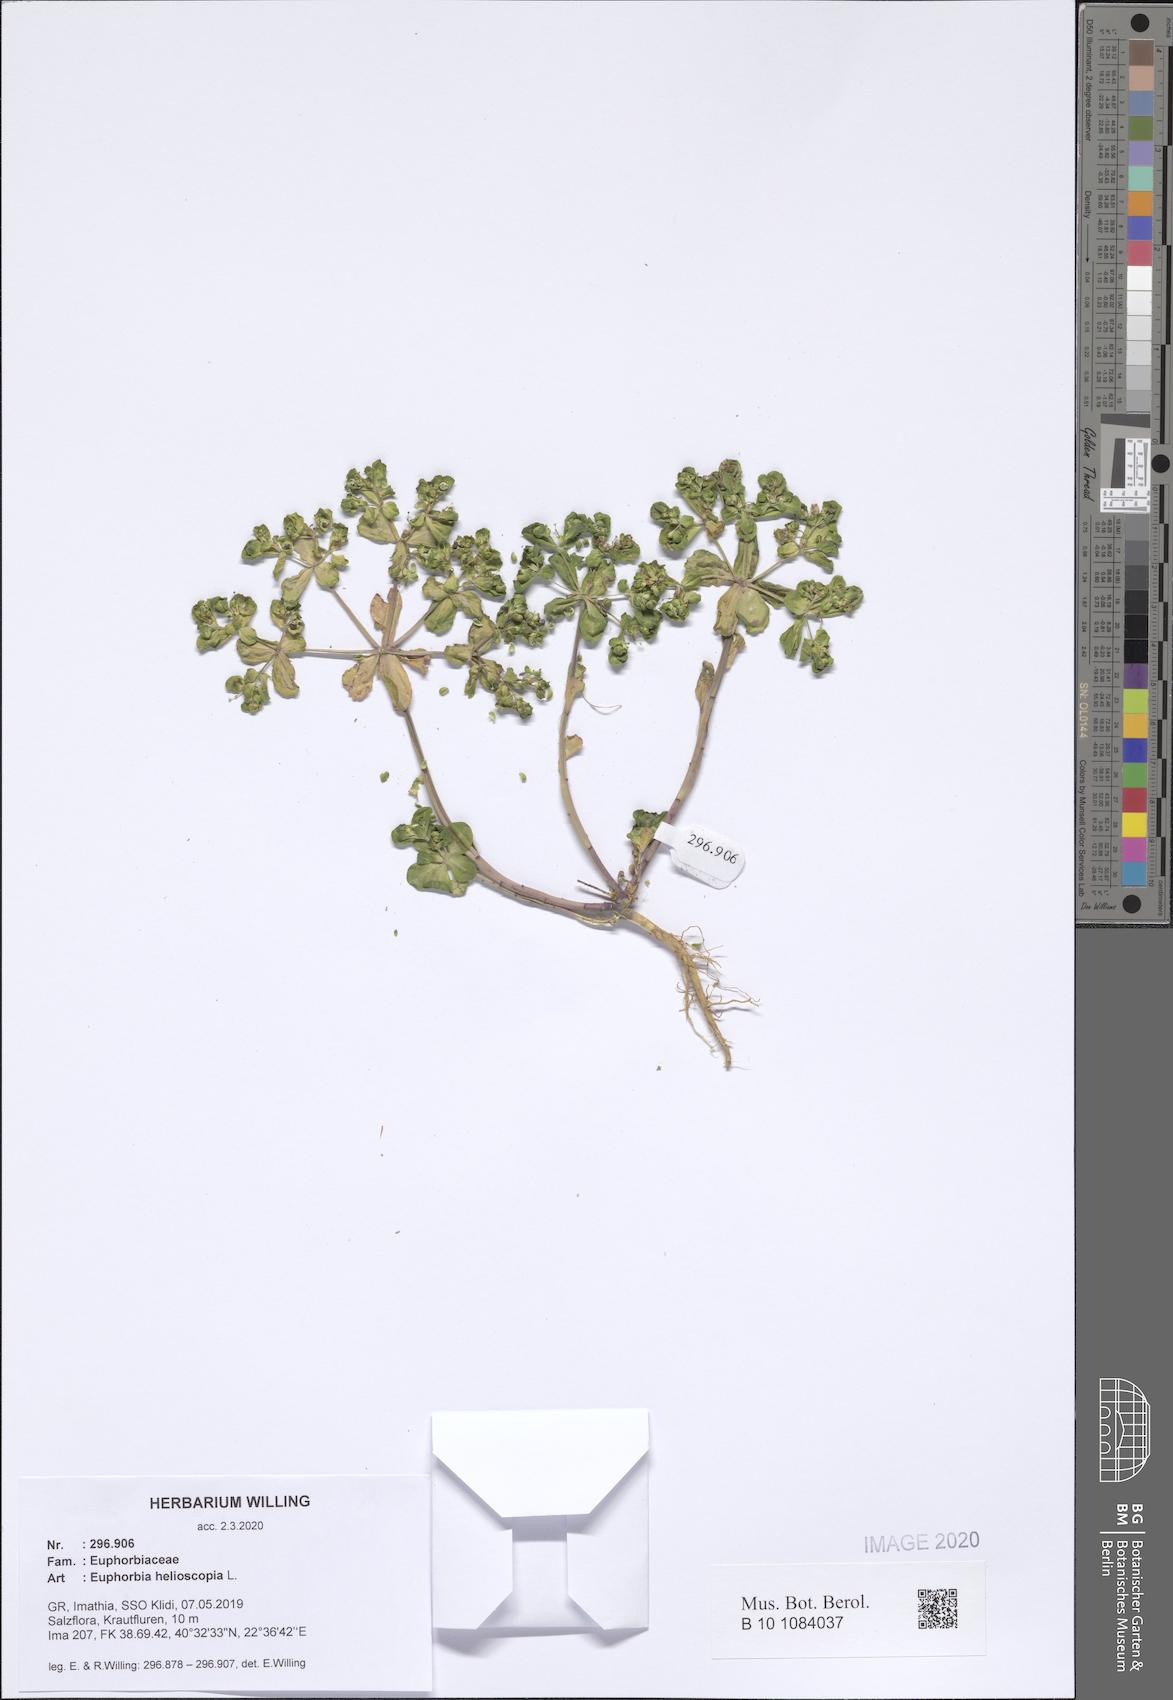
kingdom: Plantae
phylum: Tracheophyta
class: Magnoliopsida
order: Malpighiales
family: Euphorbiaceae
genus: Euphorbia
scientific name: Euphorbia helioscopia
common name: Sun spurge
